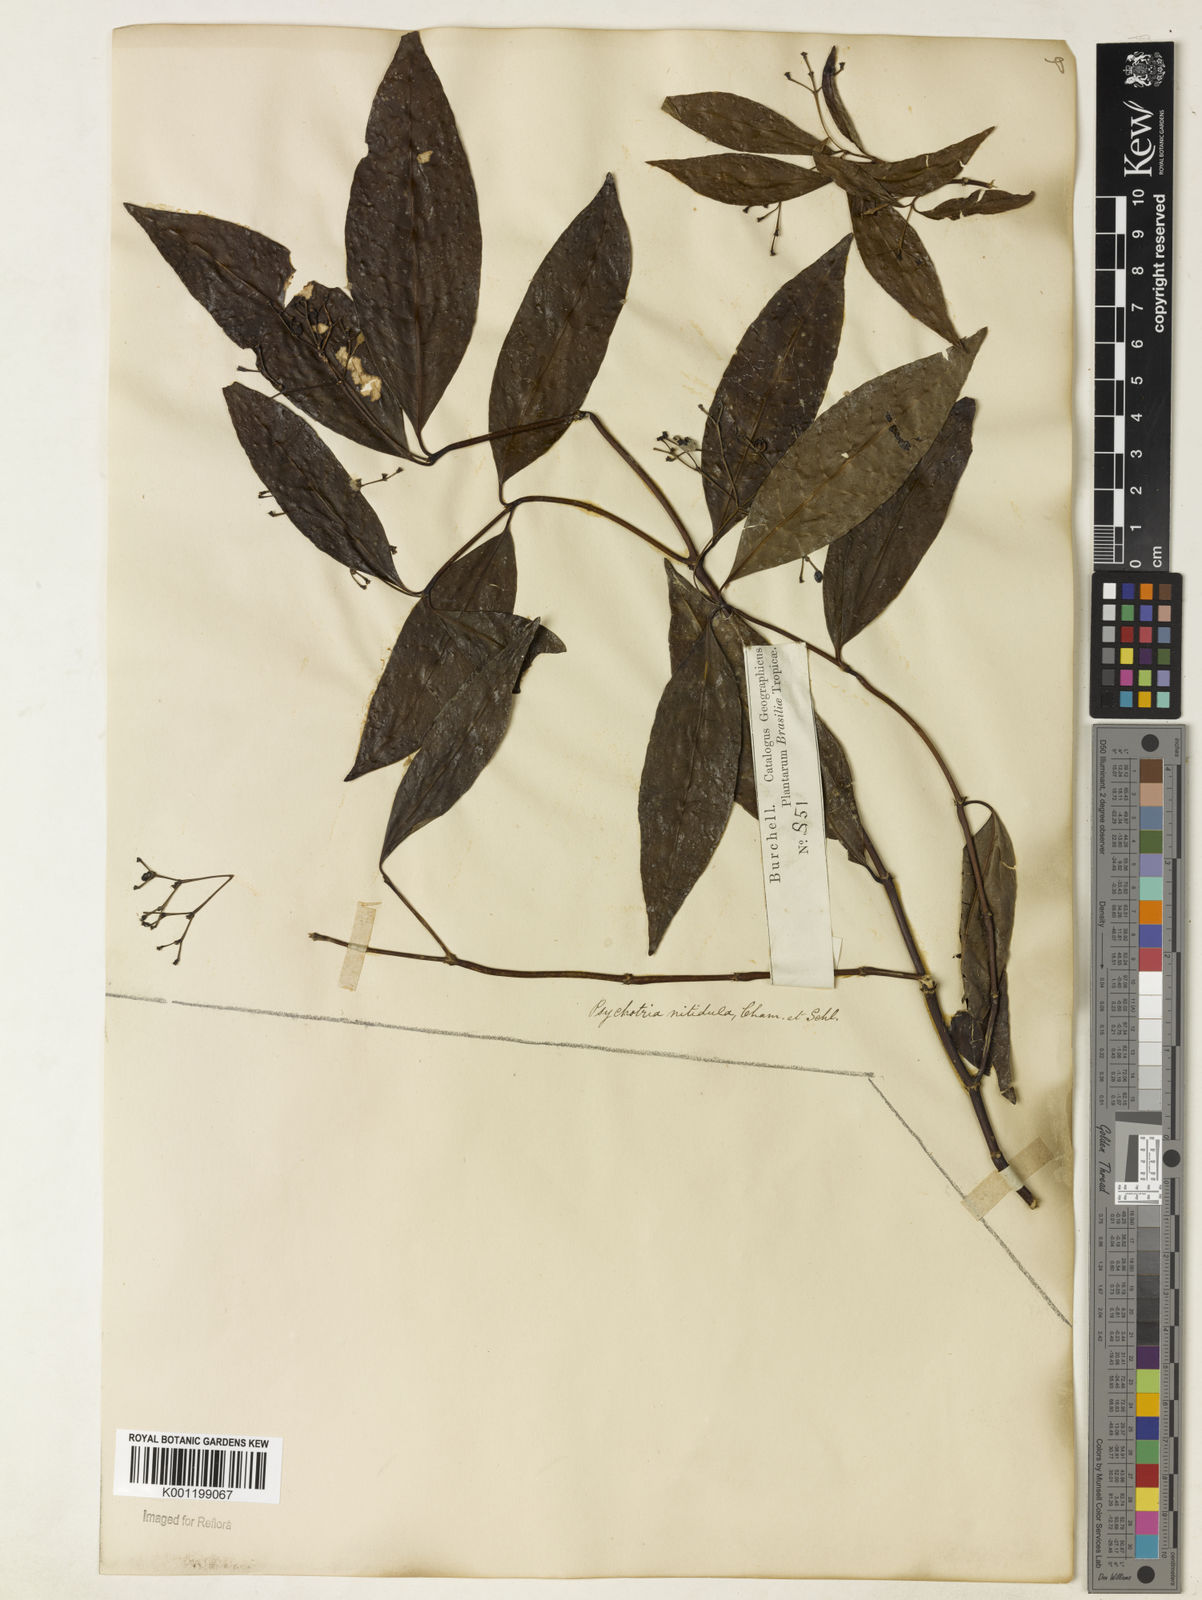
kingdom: Plantae
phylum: Tracheophyta
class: Magnoliopsida
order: Gentianales
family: Rubiaceae
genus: Psychotria
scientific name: Psychotria leiocarpa
